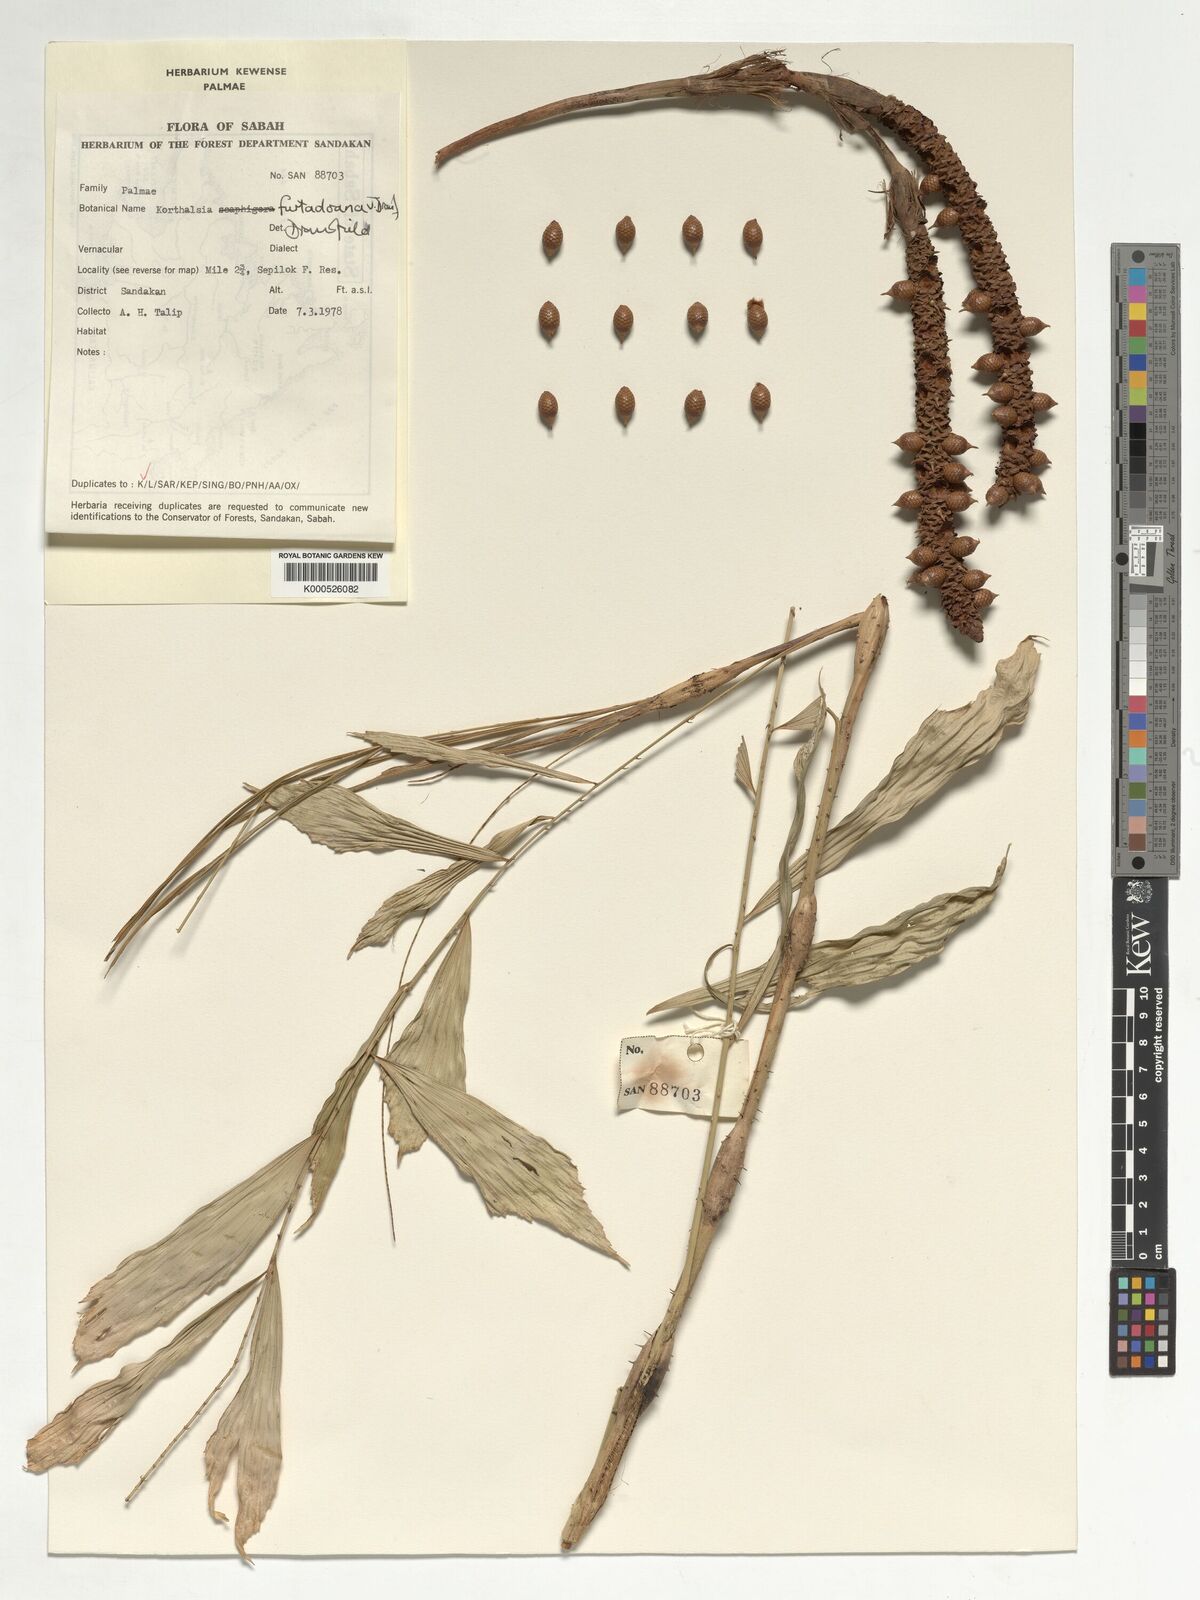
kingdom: Plantae
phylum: Tracheophyta
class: Liliopsida
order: Arecales
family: Arecaceae
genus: Korthalsia
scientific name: Korthalsia furtadoana
